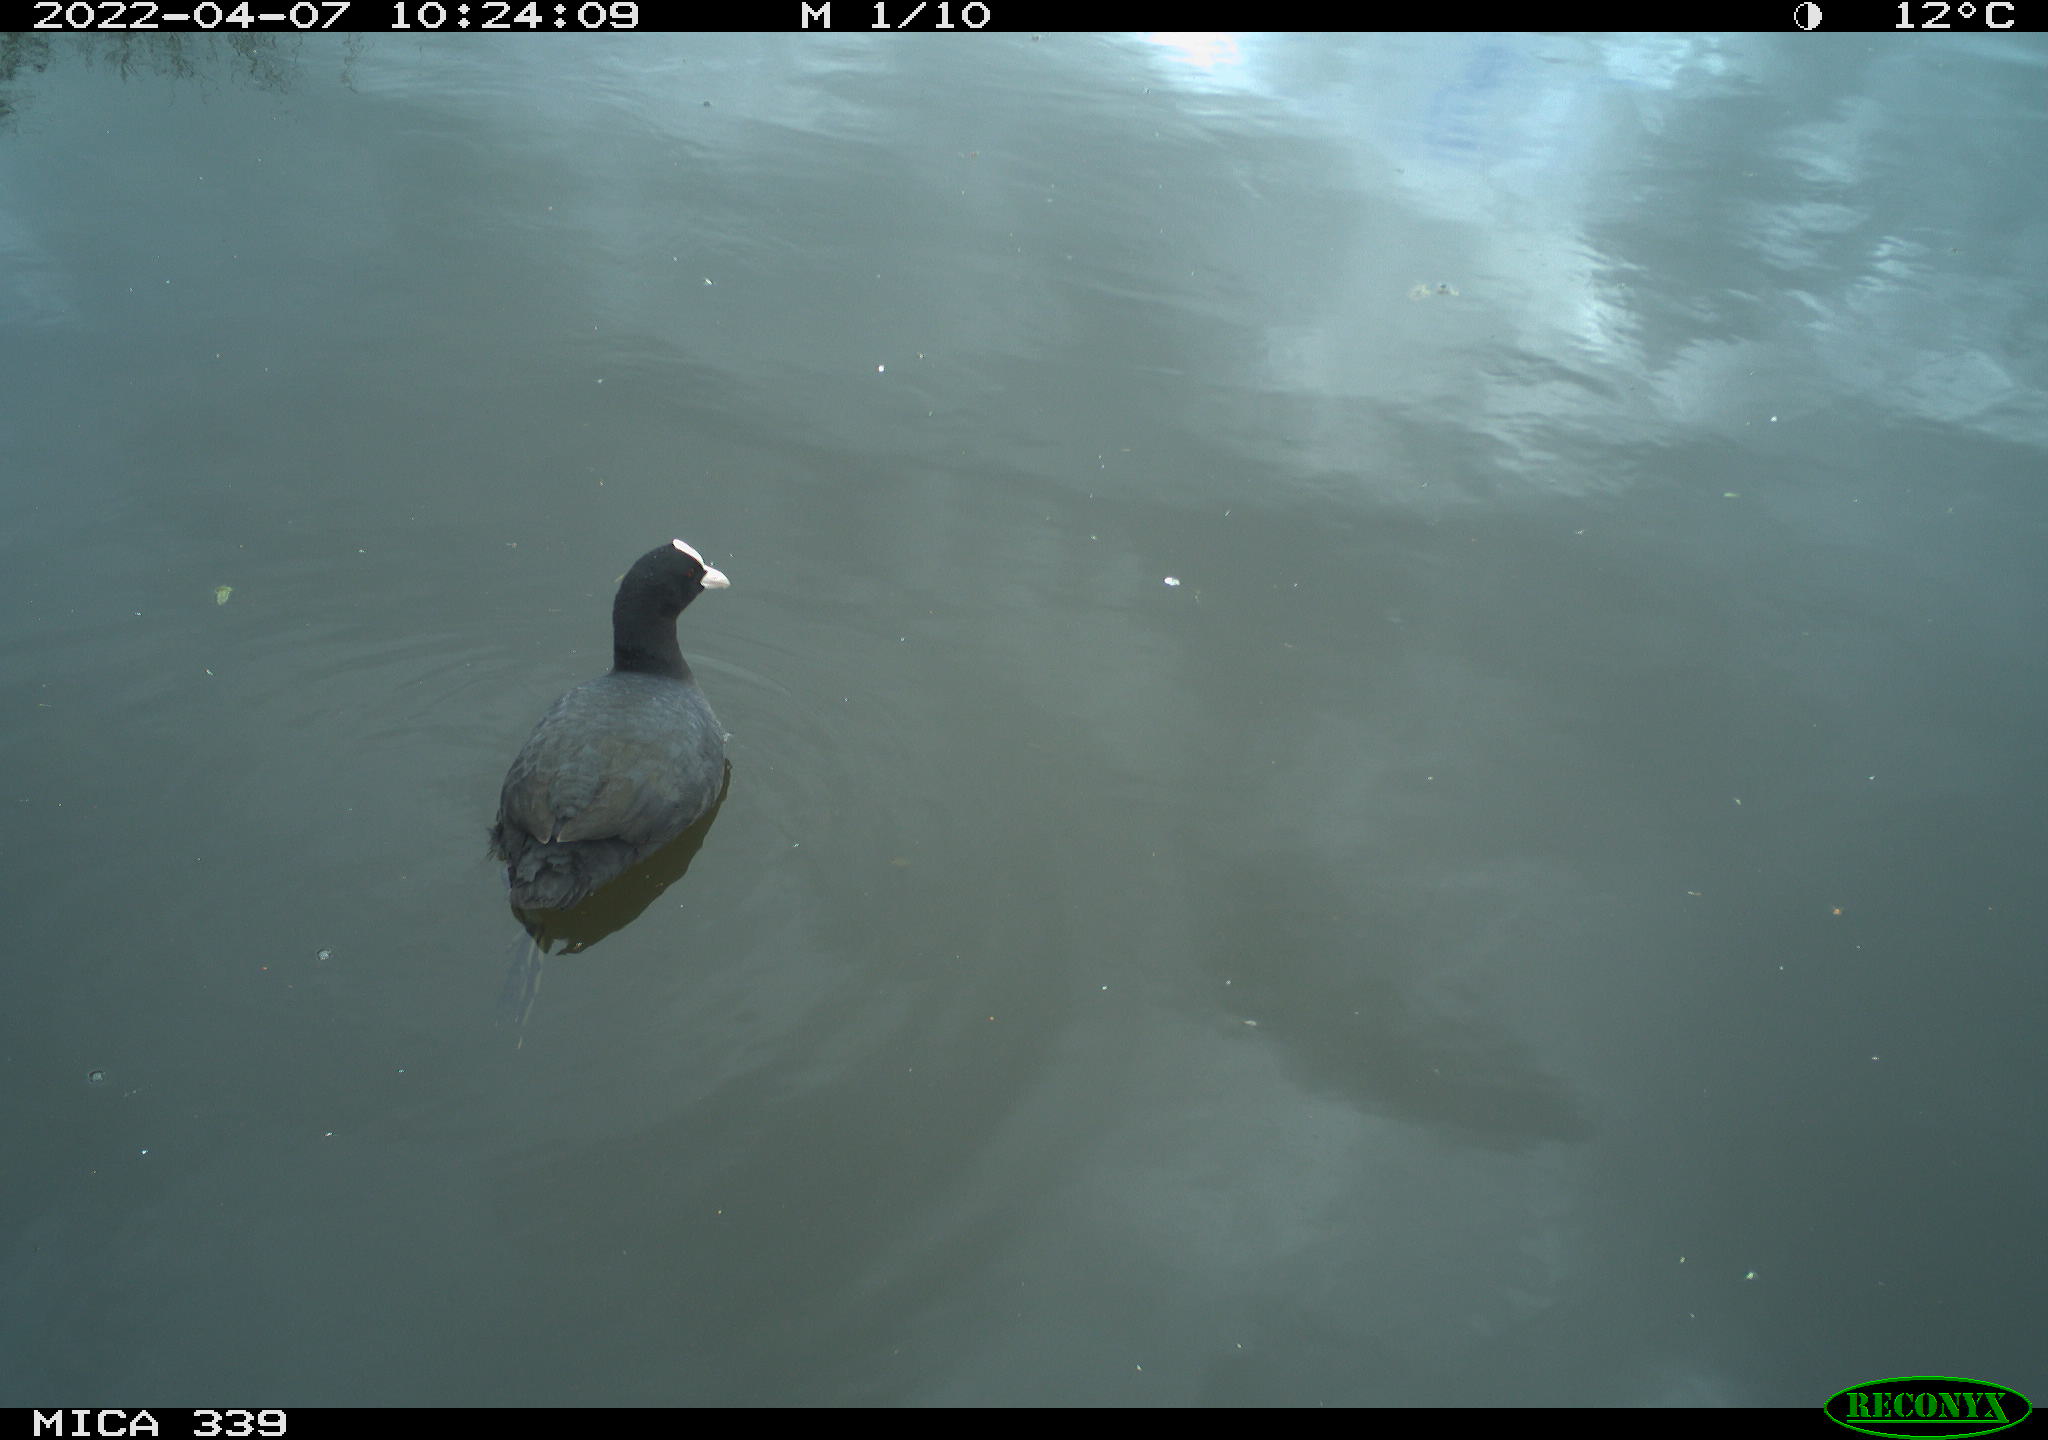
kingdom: Animalia
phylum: Chordata
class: Aves
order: Gruiformes
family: Rallidae
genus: Fulica
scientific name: Fulica atra
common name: Eurasian coot
